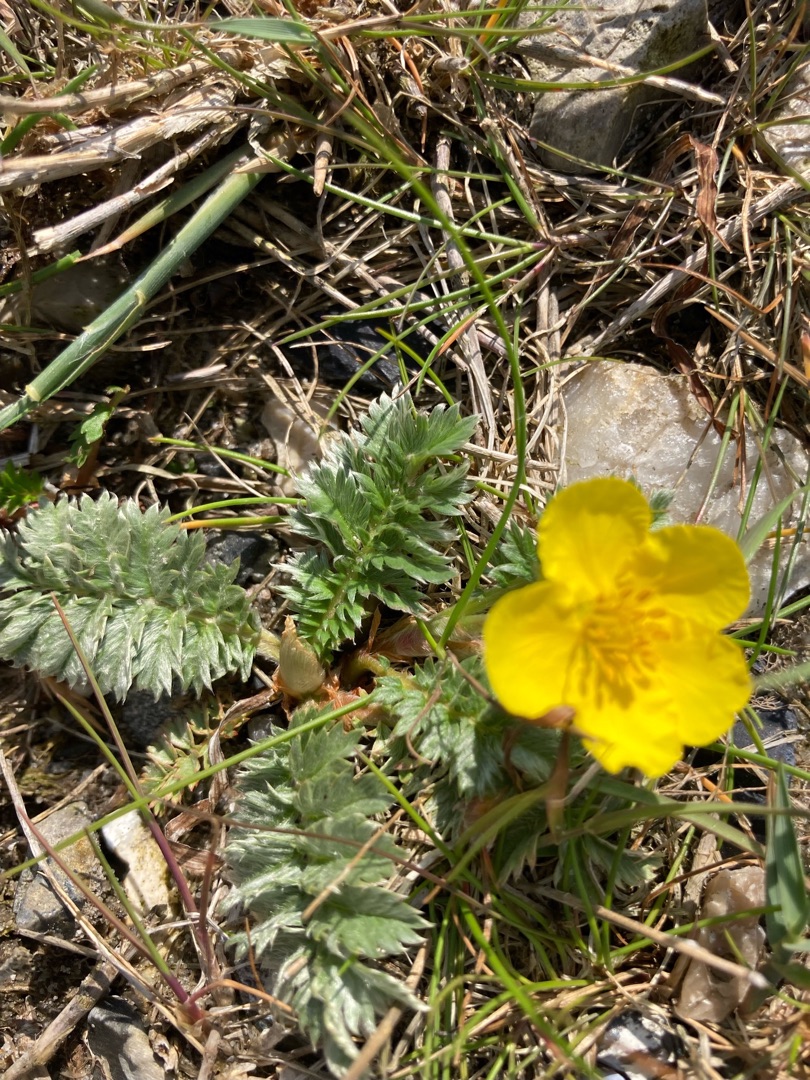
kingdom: Plantae
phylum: Tracheophyta
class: Magnoliopsida
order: Rosales
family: Rosaceae
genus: Argentina
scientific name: Argentina anserina
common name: Gåsepotentil
